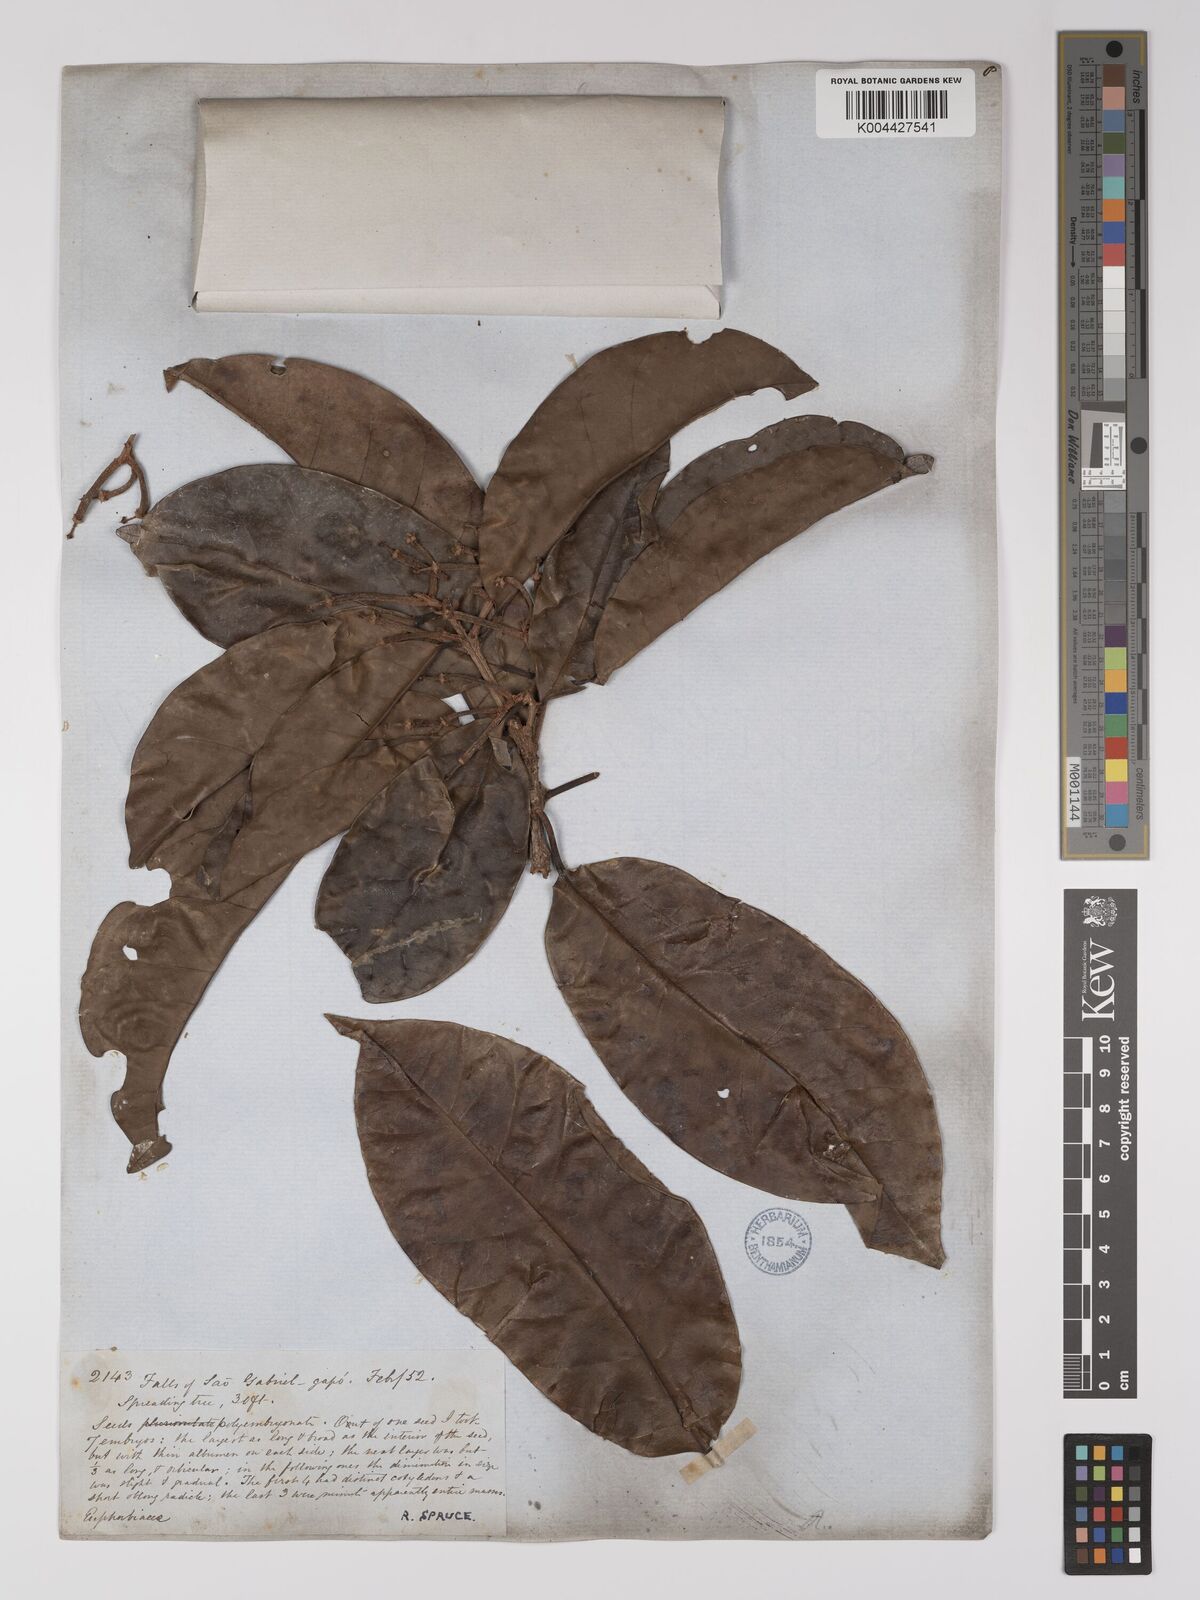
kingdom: Plantae
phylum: Tracheophyta
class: Magnoliopsida
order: Malpighiales
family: Picrodendraceae
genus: Podocalyx
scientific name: Podocalyx loranthoides
